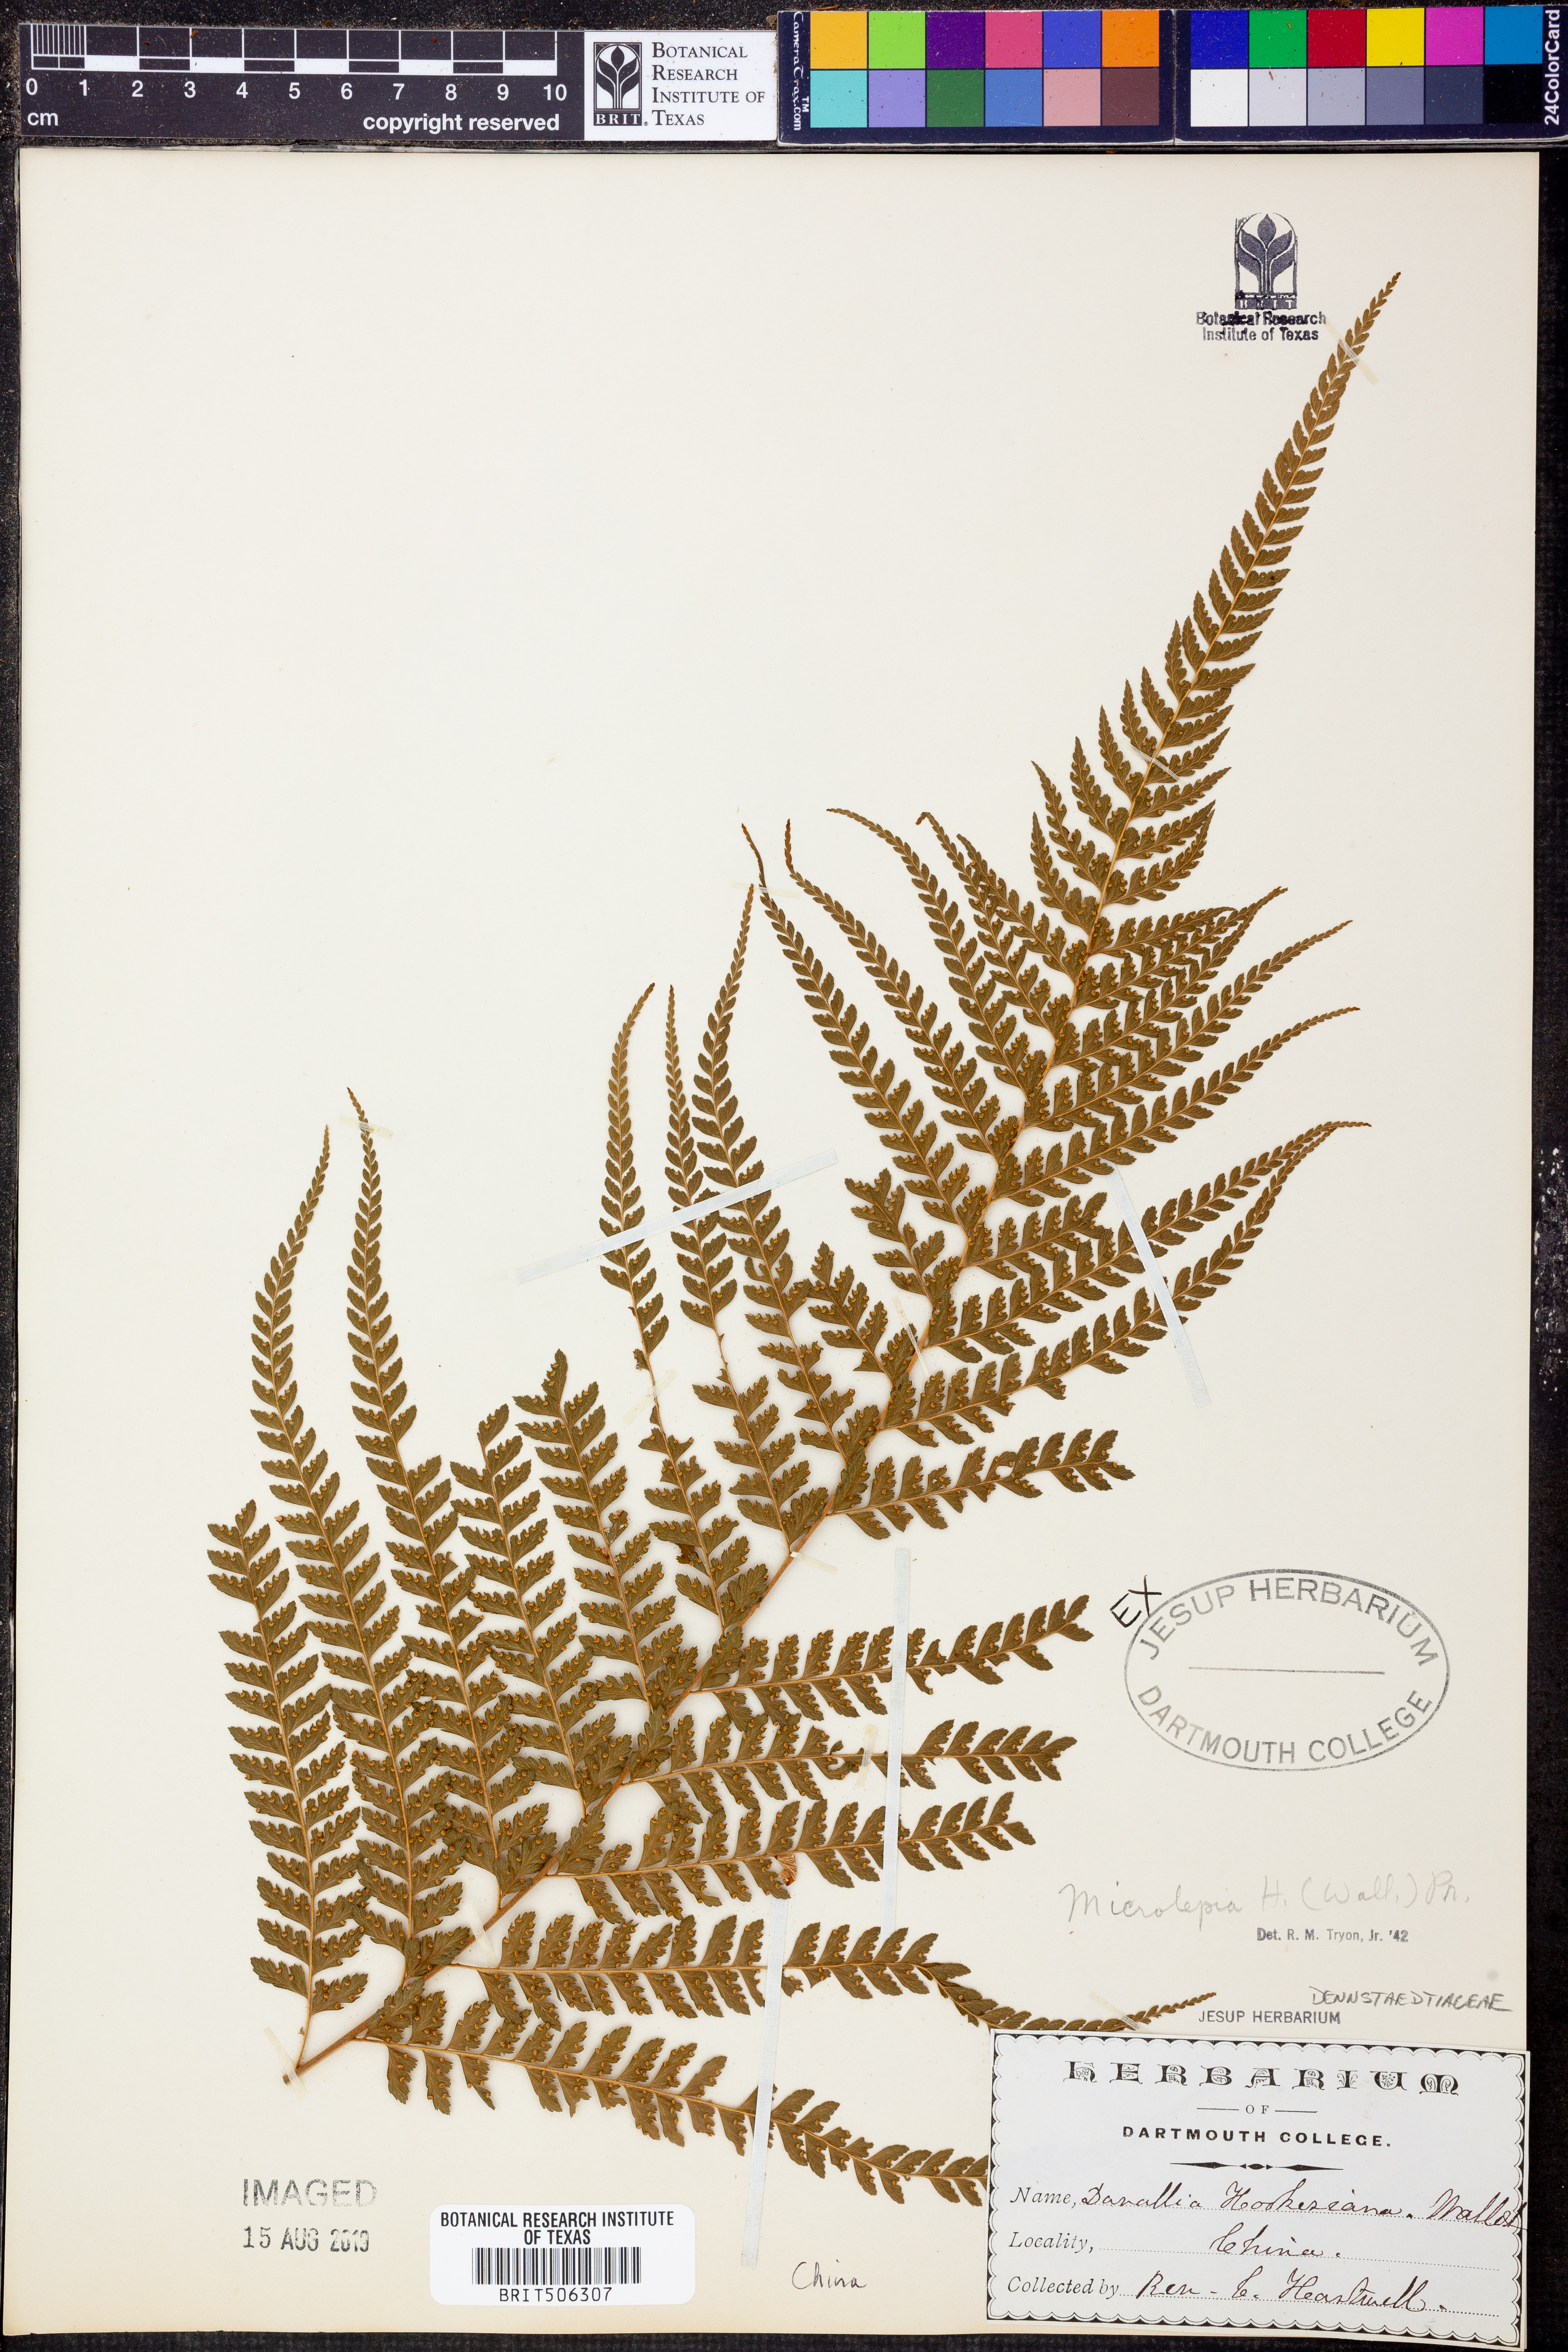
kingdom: Plantae
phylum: Tracheophyta
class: Polypodiopsida
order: Polypodiales
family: Dennstaedtiaceae
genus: Microlepia
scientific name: Microlepia hookeriana
